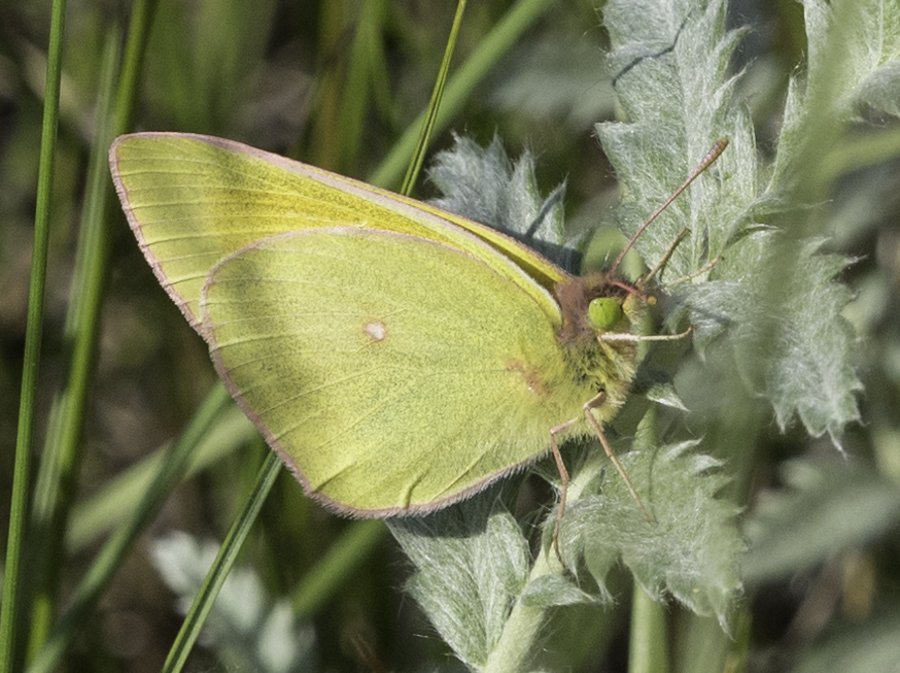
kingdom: Animalia
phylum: Arthropoda
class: Insecta
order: Lepidoptera
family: Pieridae
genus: Colias
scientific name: Colias christina
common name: Christina Sulphur
